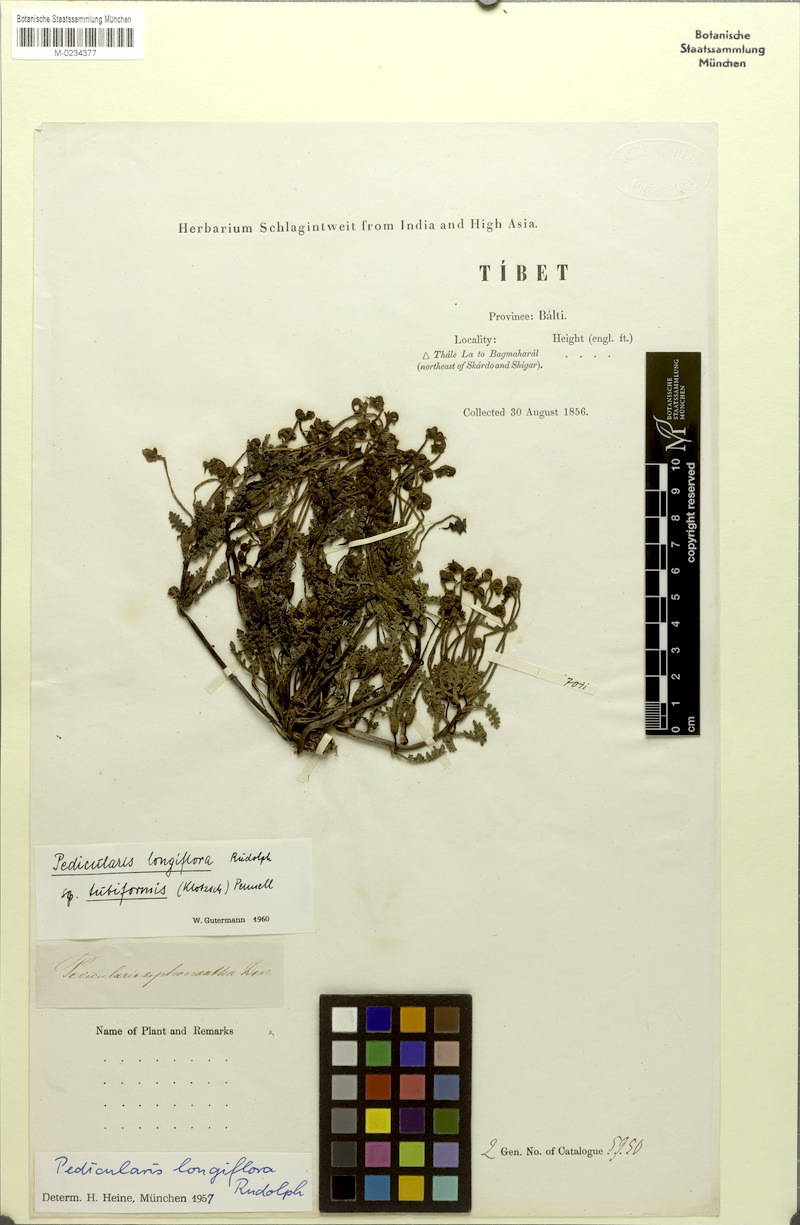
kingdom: Plantae
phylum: Tracheophyta
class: Magnoliopsida
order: Lamiales
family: Orobanchaceae
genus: Pedicularis
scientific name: Pedicularis longiflora
